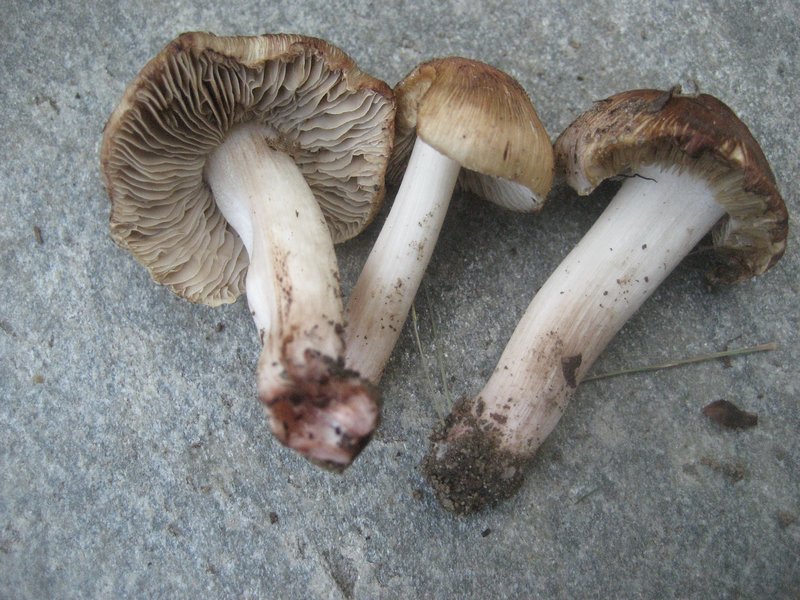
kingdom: Fungi
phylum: Basidiomycota
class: Agaricomycetes
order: Agaricales
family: Inocybaceae
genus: Inosperma
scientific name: Inosperma adaequatum
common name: vinrød trævlhat
